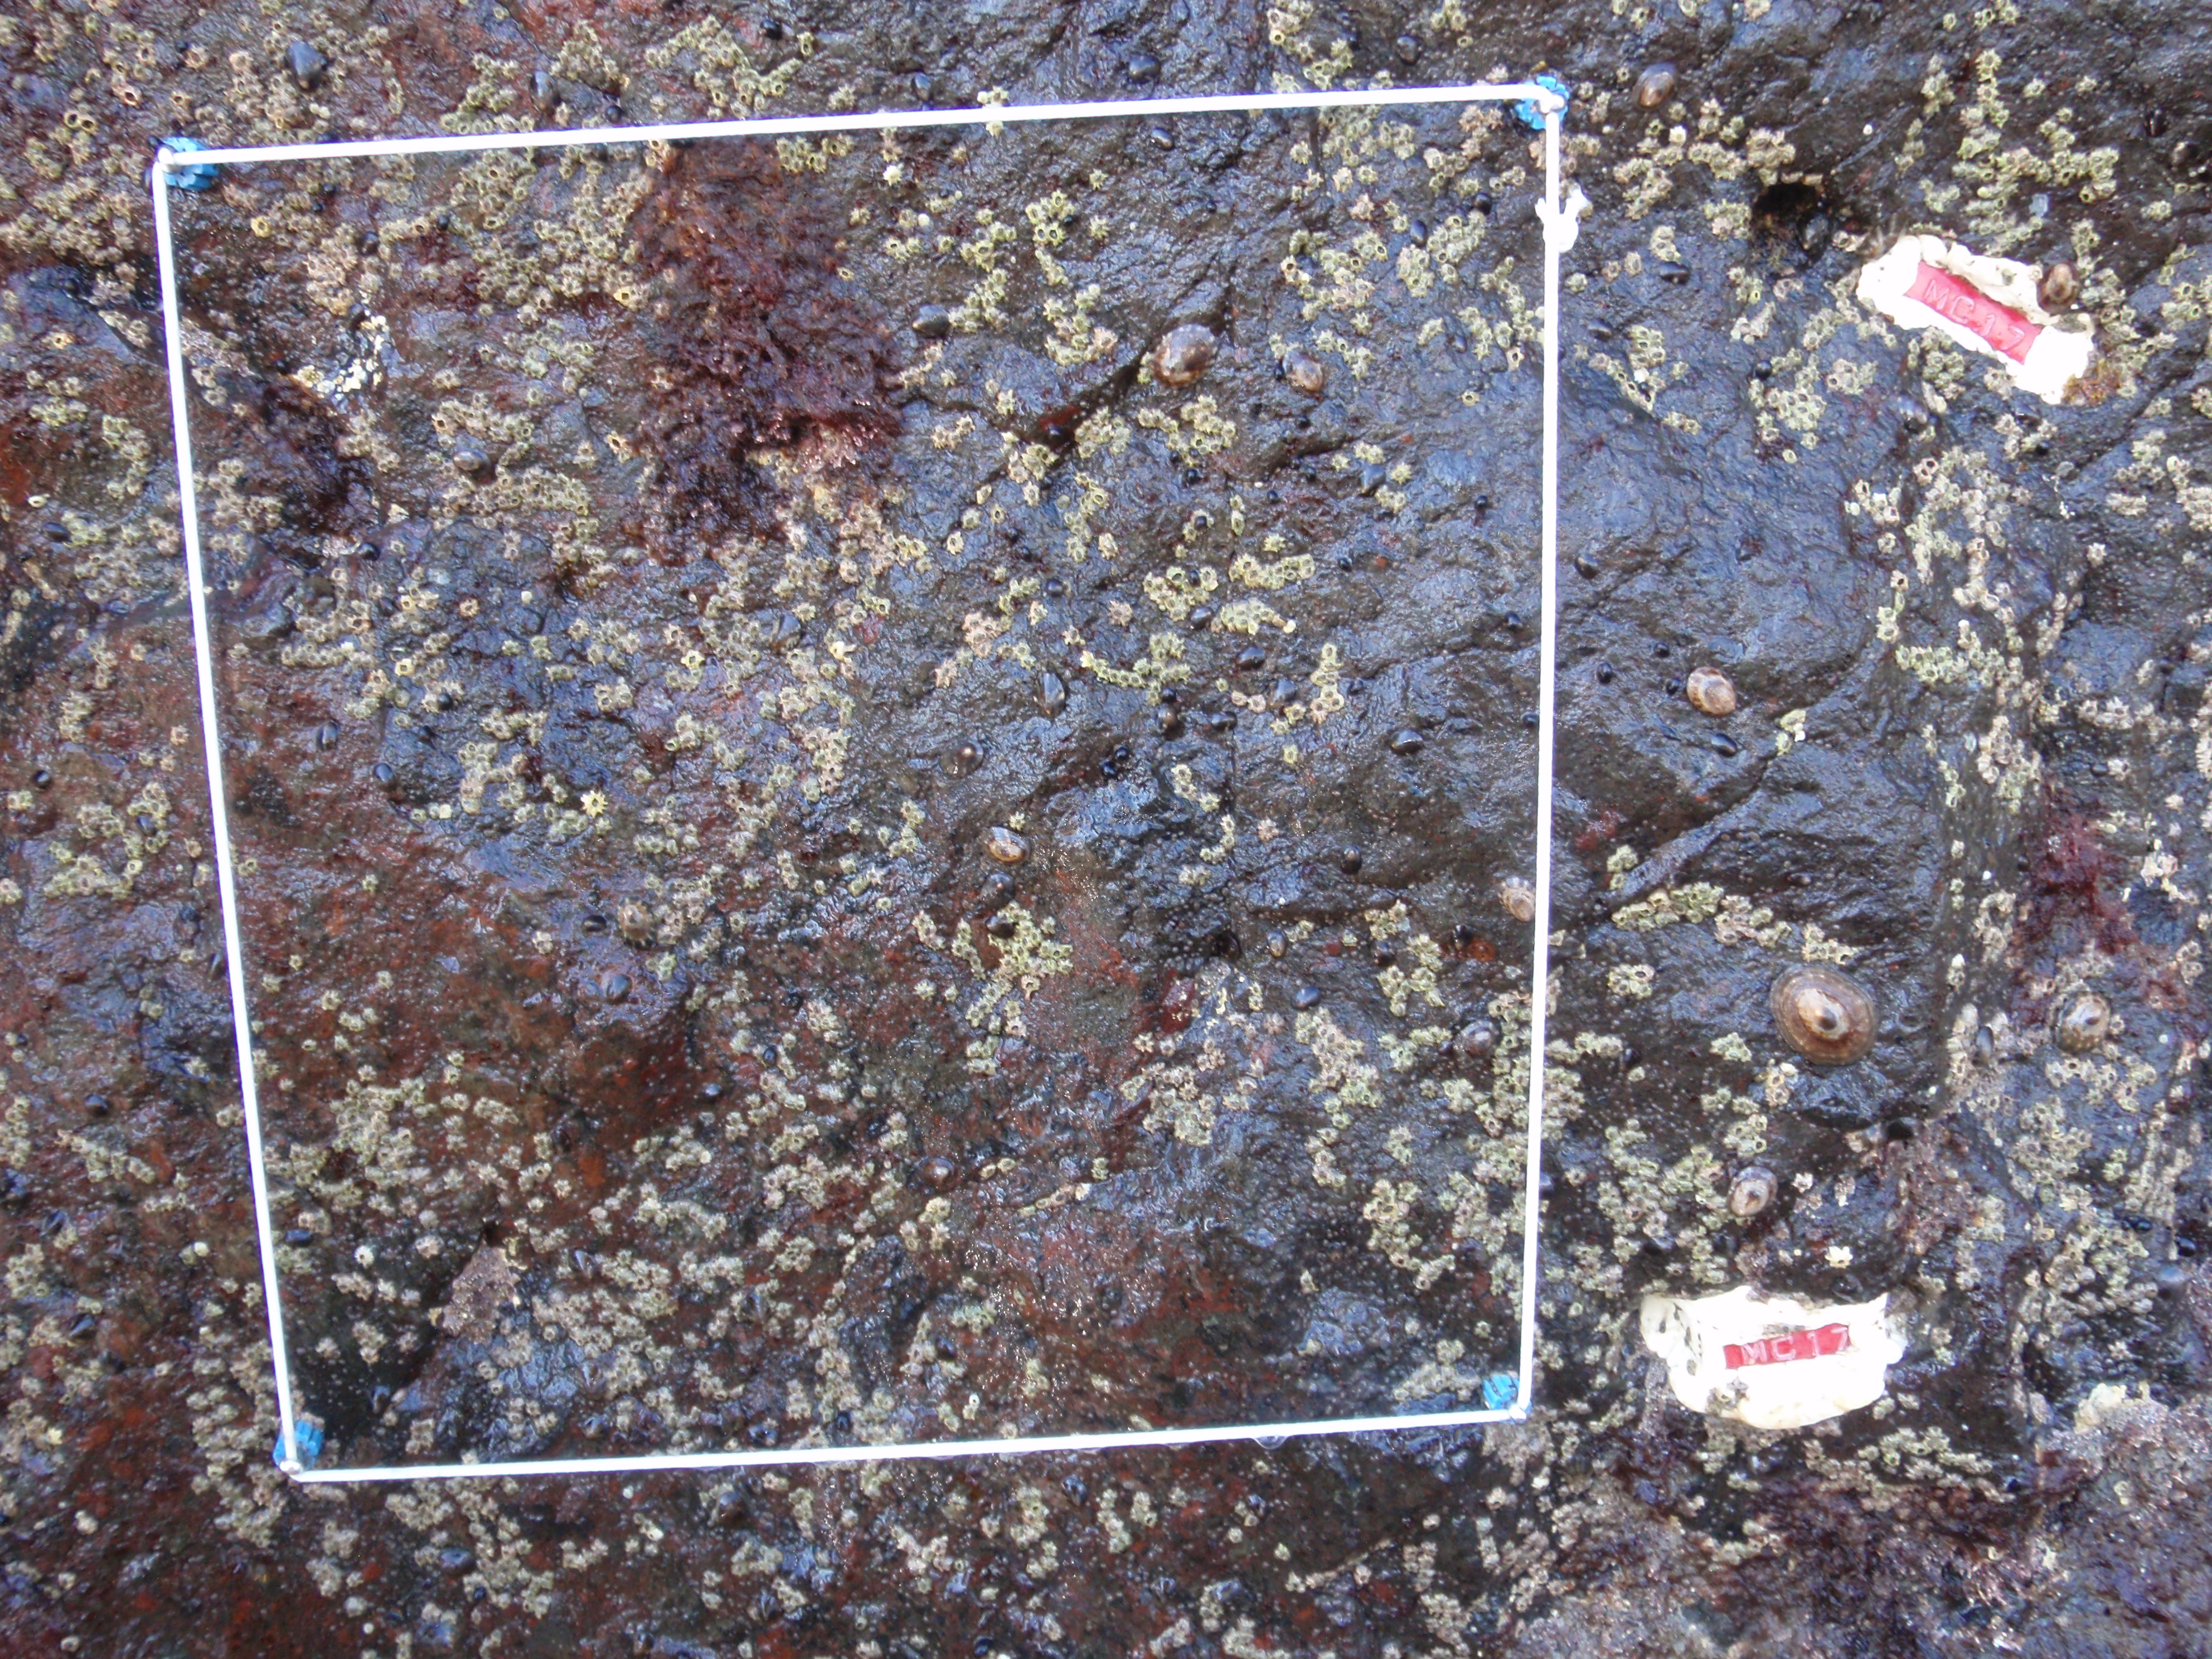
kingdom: Plantae
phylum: Rhodophyta
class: Florideophyceae
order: Gigartinales
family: Endocladiaceae
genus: Gloiopeltis
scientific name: Gloiopeltis furcata
